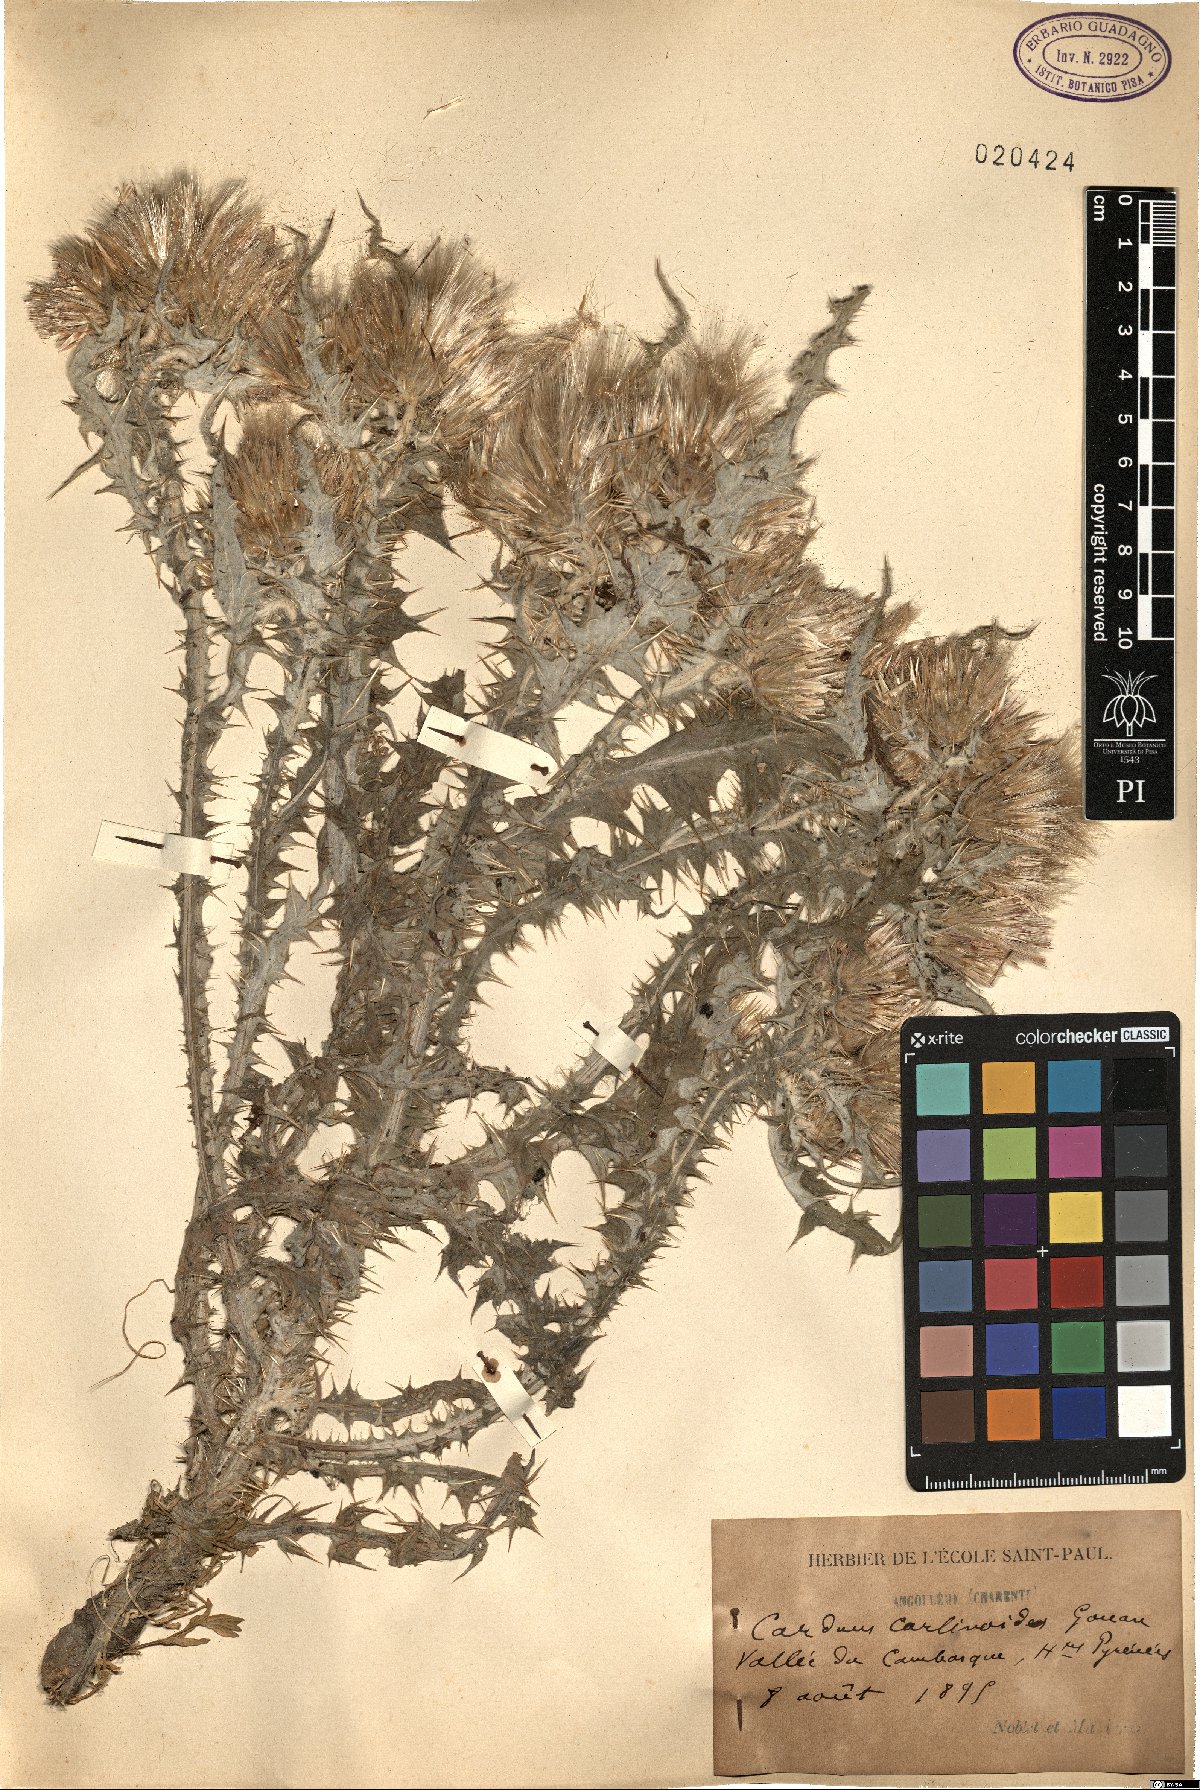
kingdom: Plantae
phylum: Tracheophyta
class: Magnoliopsida
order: Asterales
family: Asteraceae
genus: Carduus
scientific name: Carduus carlinoides
